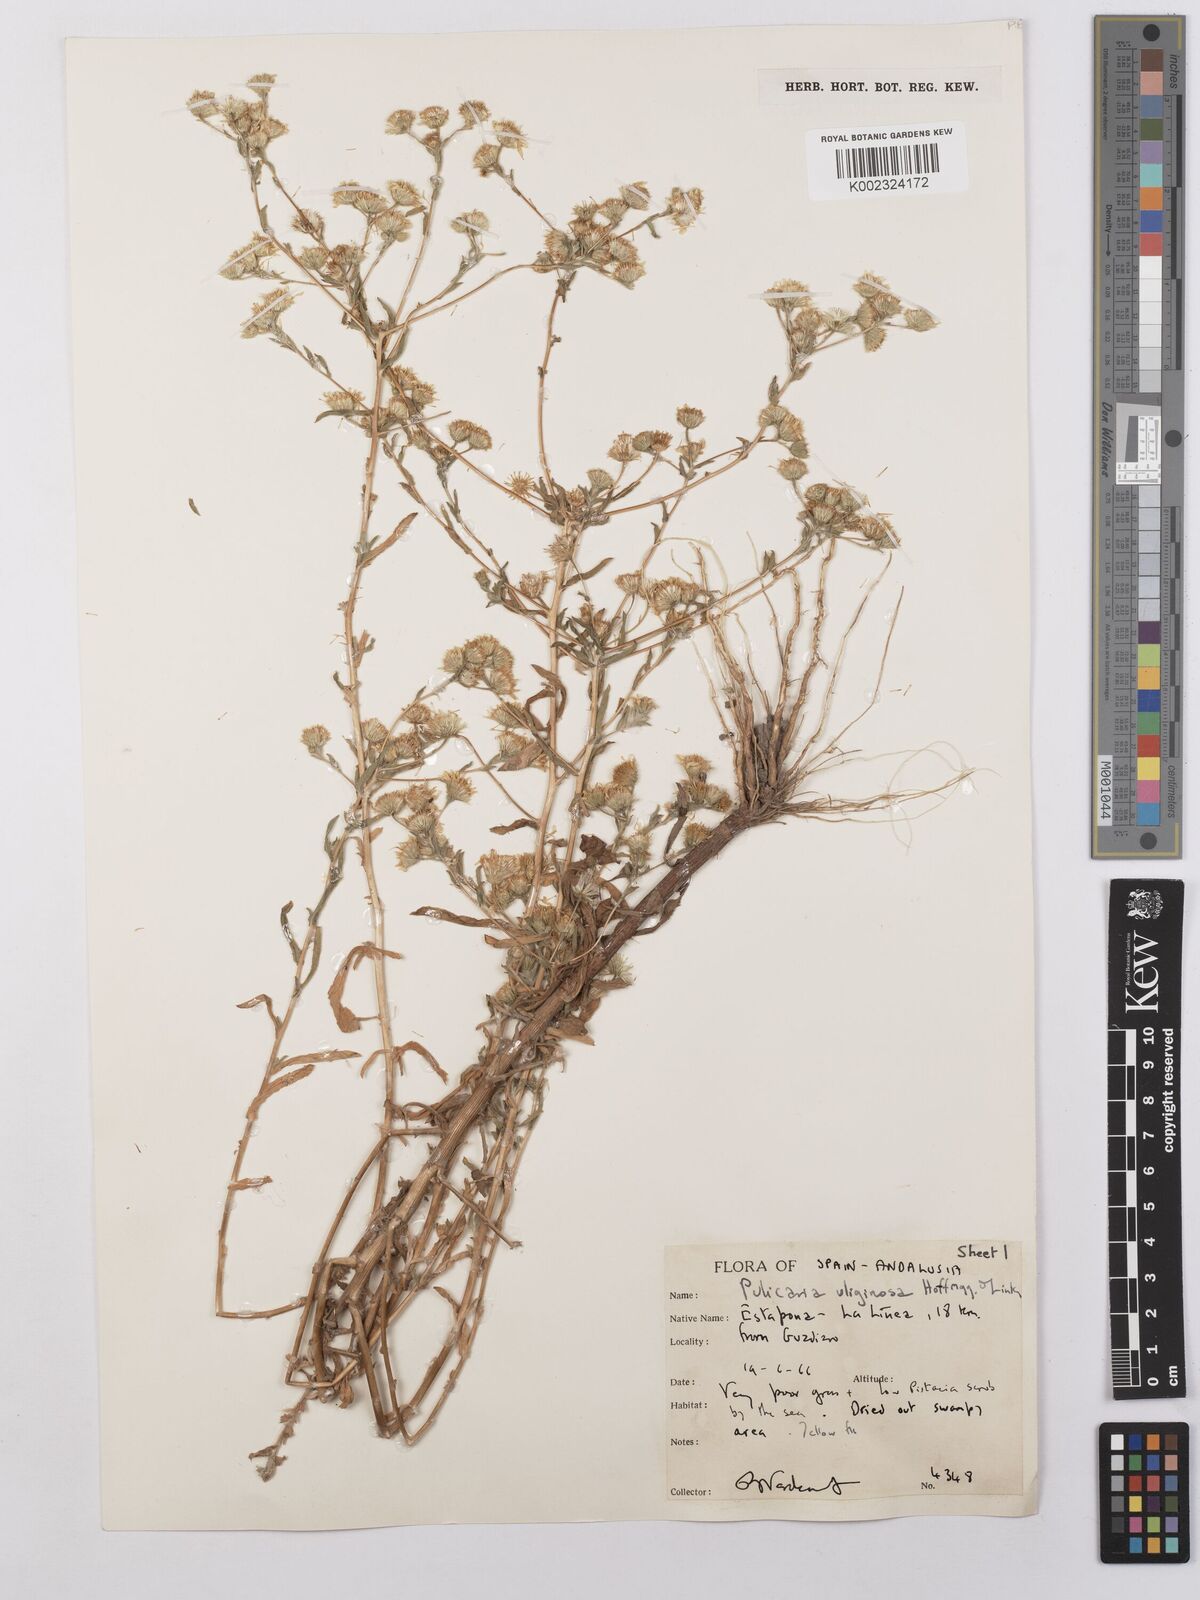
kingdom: Plantae
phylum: Tracheophyta
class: Magnoliopsida
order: Asterales
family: Asteraceae
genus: Pulicaria
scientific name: Pulicaria arabica
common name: Ladies' false fleabane
